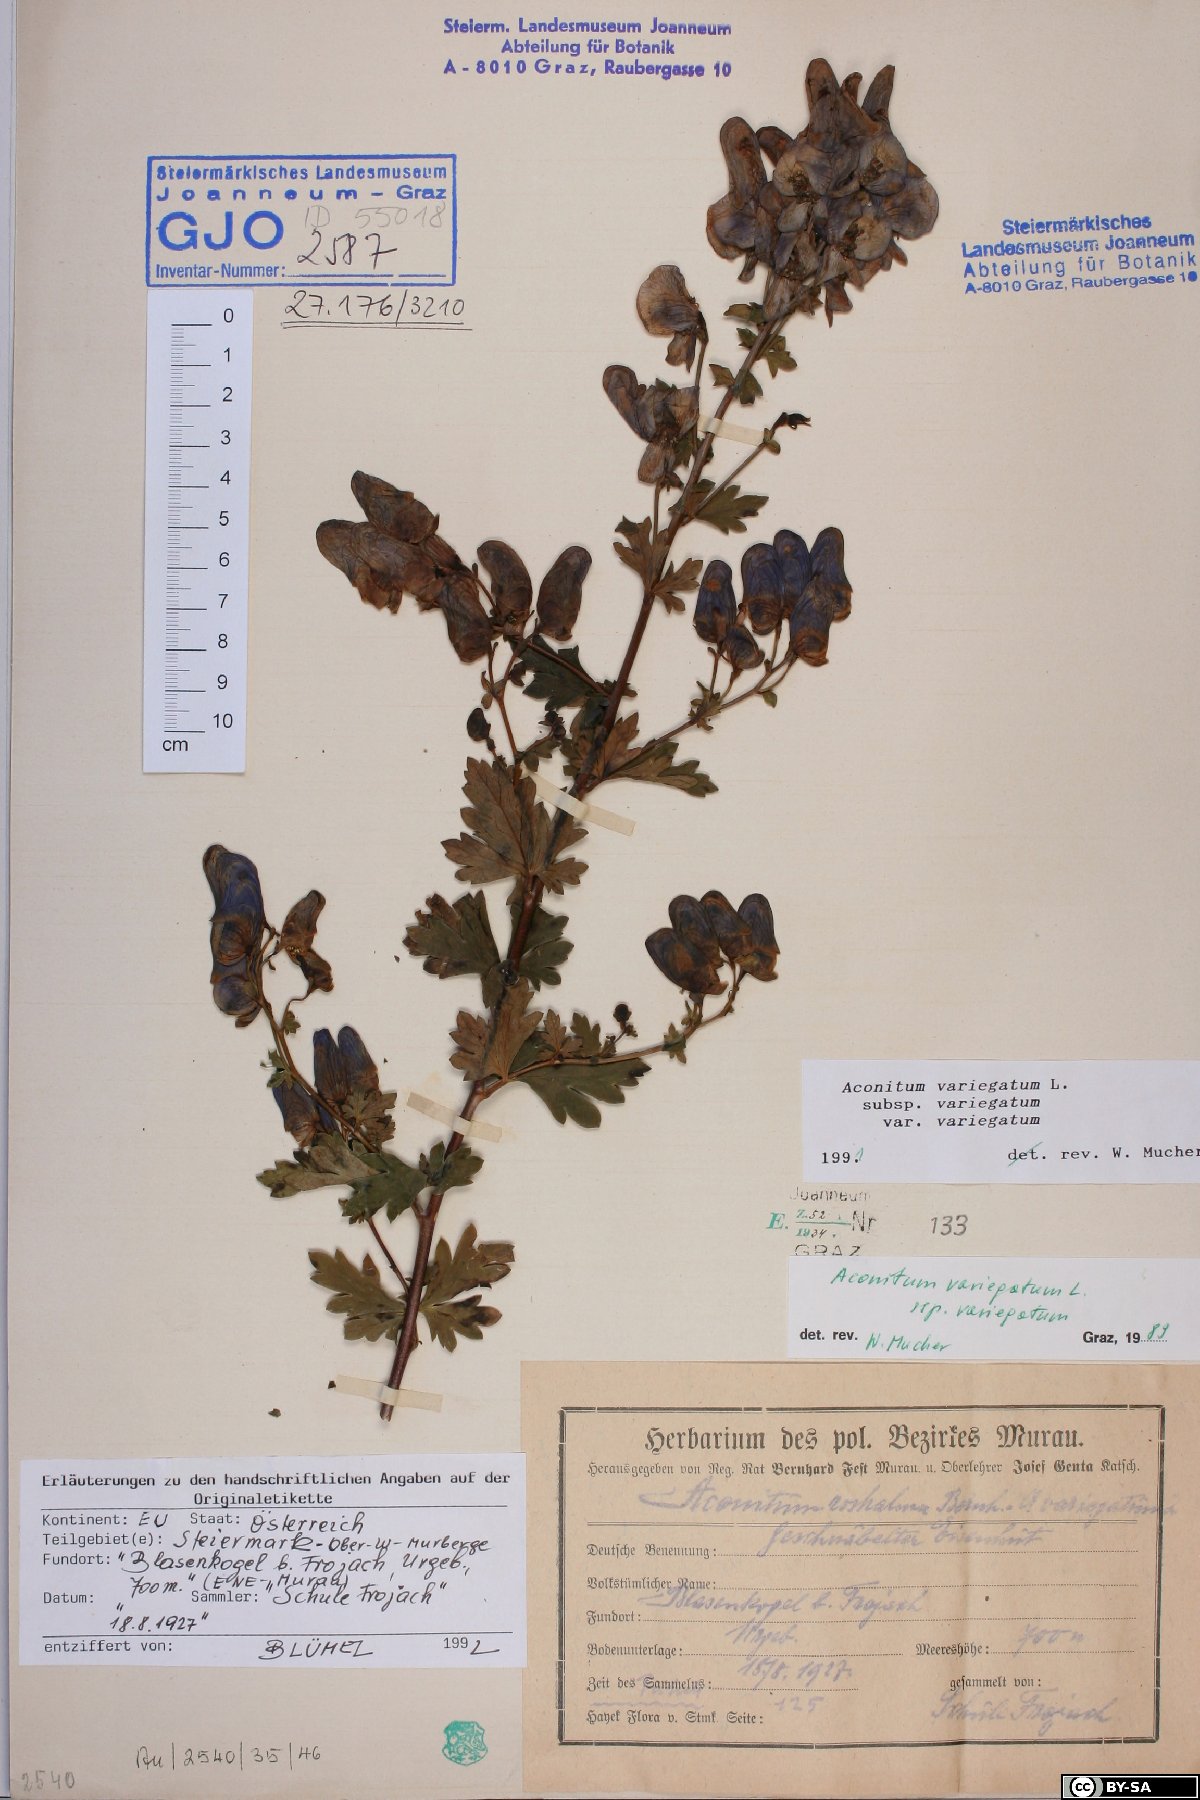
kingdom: Plantae
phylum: Tracheophyta
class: Magnoliopsida
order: Ranunculales
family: Ranunculaceae
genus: Aconitum
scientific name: Aconitum variegatum
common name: Manchurian monkshood
